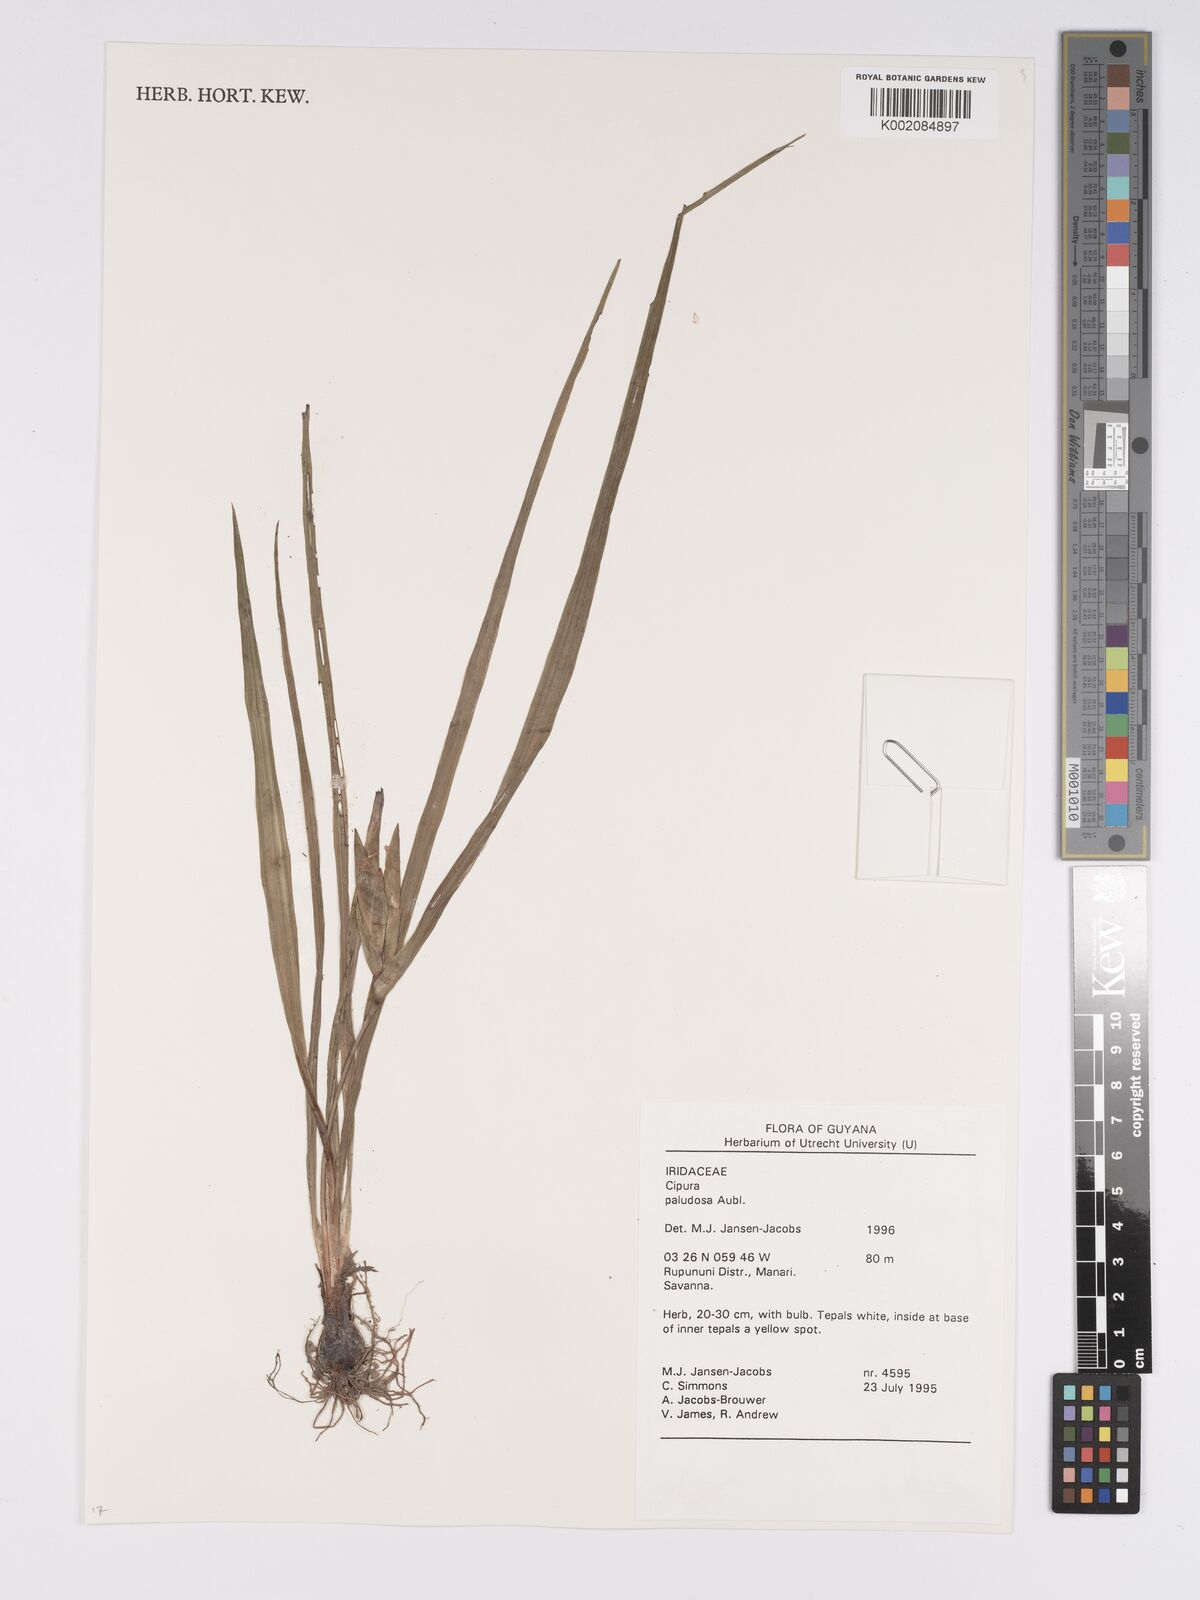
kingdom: Plantae
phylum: Tracheophyta
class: Liliopsida
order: Asparagales
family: Iridaceae
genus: Cipura
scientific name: Cipura paludosa
